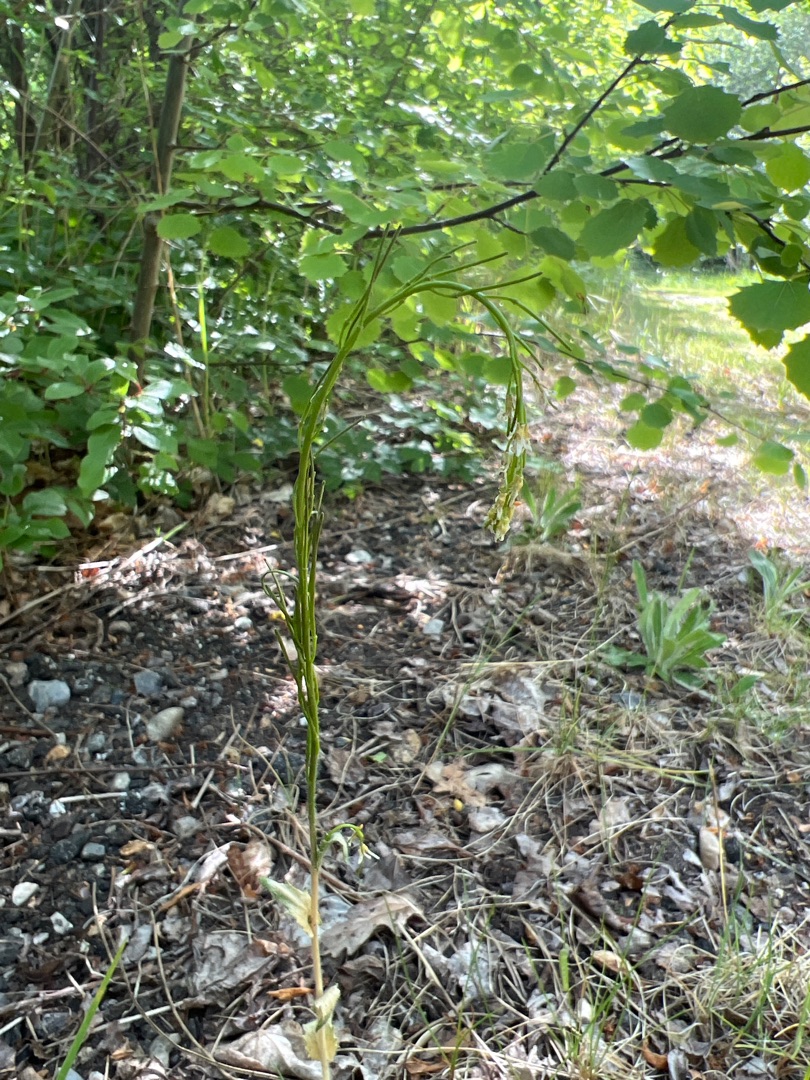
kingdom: Plantae
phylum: Tracheophyta
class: Magnoliopsida
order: Brassicales
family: Brassicaceae
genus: Arabis
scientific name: Arabis hirsuta
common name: Stivhåret kalkkarse
